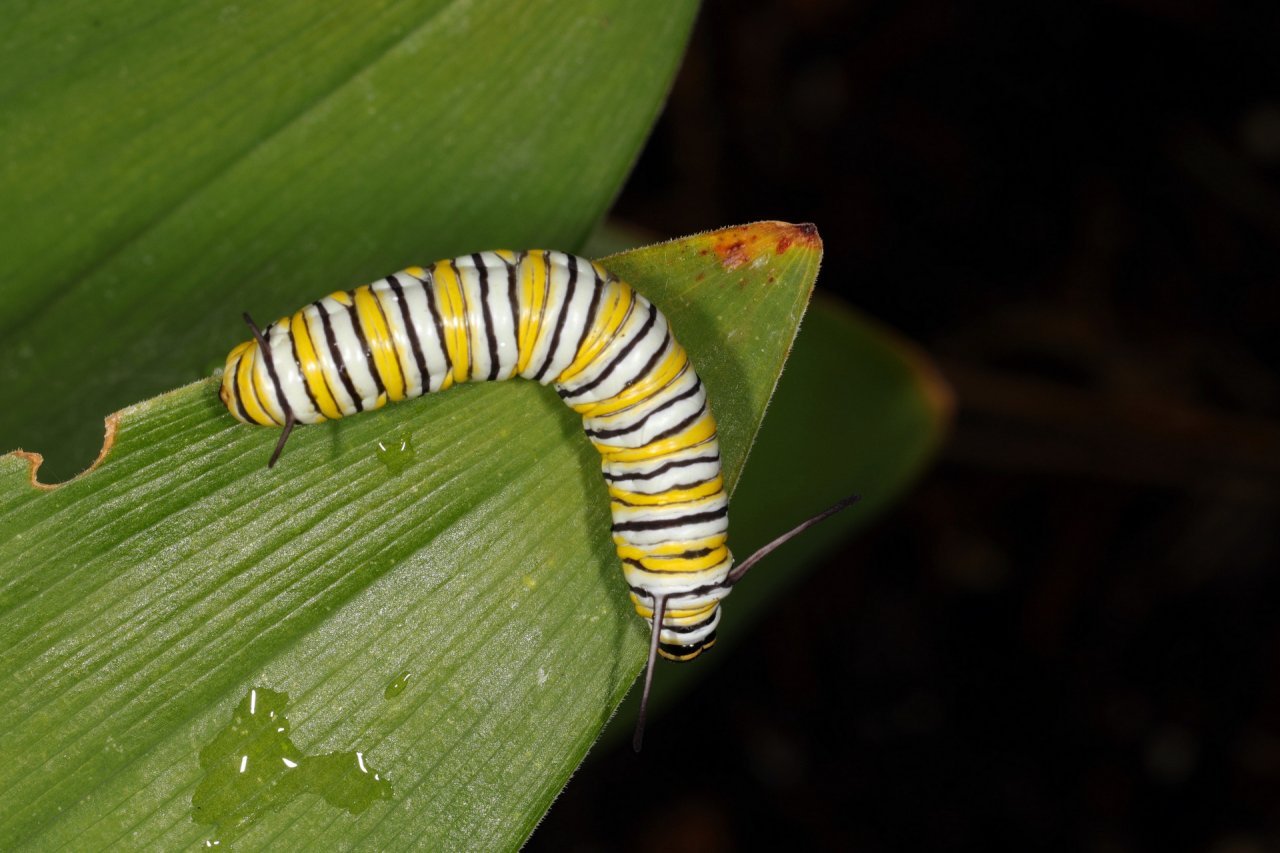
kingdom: Animalia
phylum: Arthropoda
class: Insecta
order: Lepidoptera
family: Nymphalidae
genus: Danaus
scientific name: Danaus plexippus
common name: Monarch
